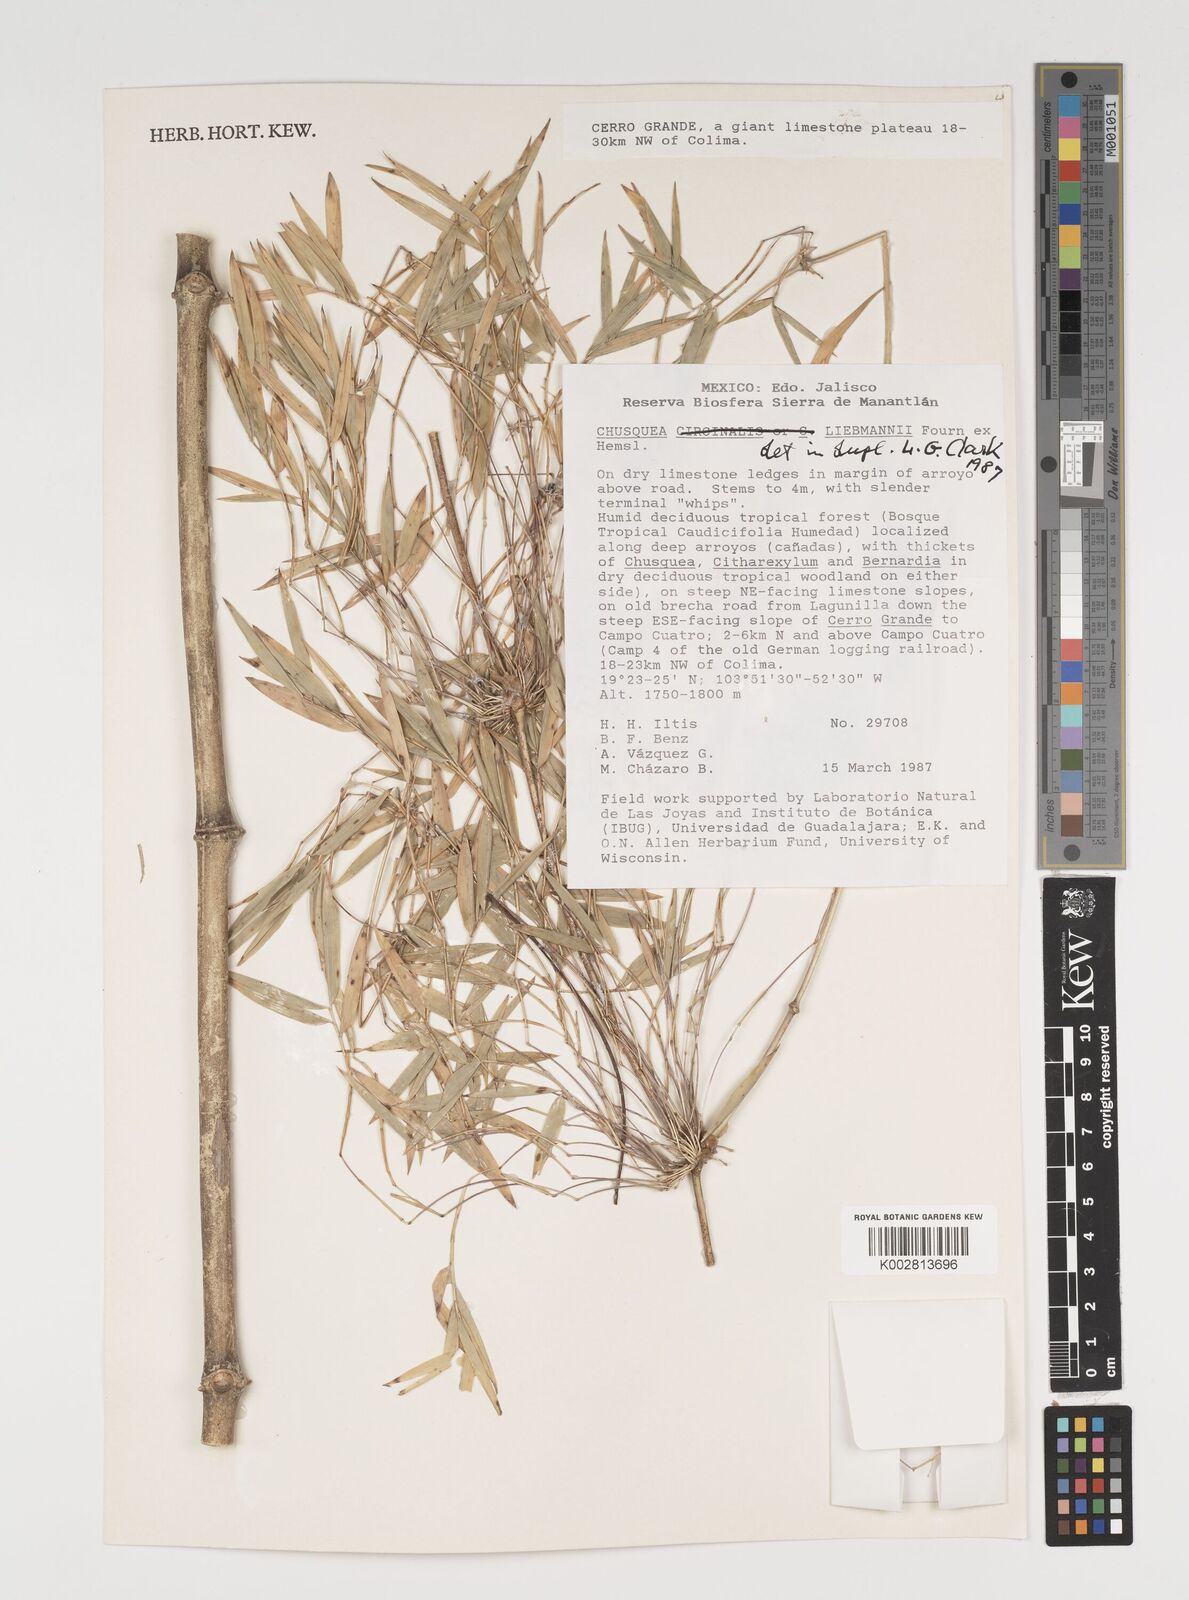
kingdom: Plantae
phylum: Tracheophyta
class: Liliopsida
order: Poales
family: Poaceae
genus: Chusquea
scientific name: Chusquea liebmannii
